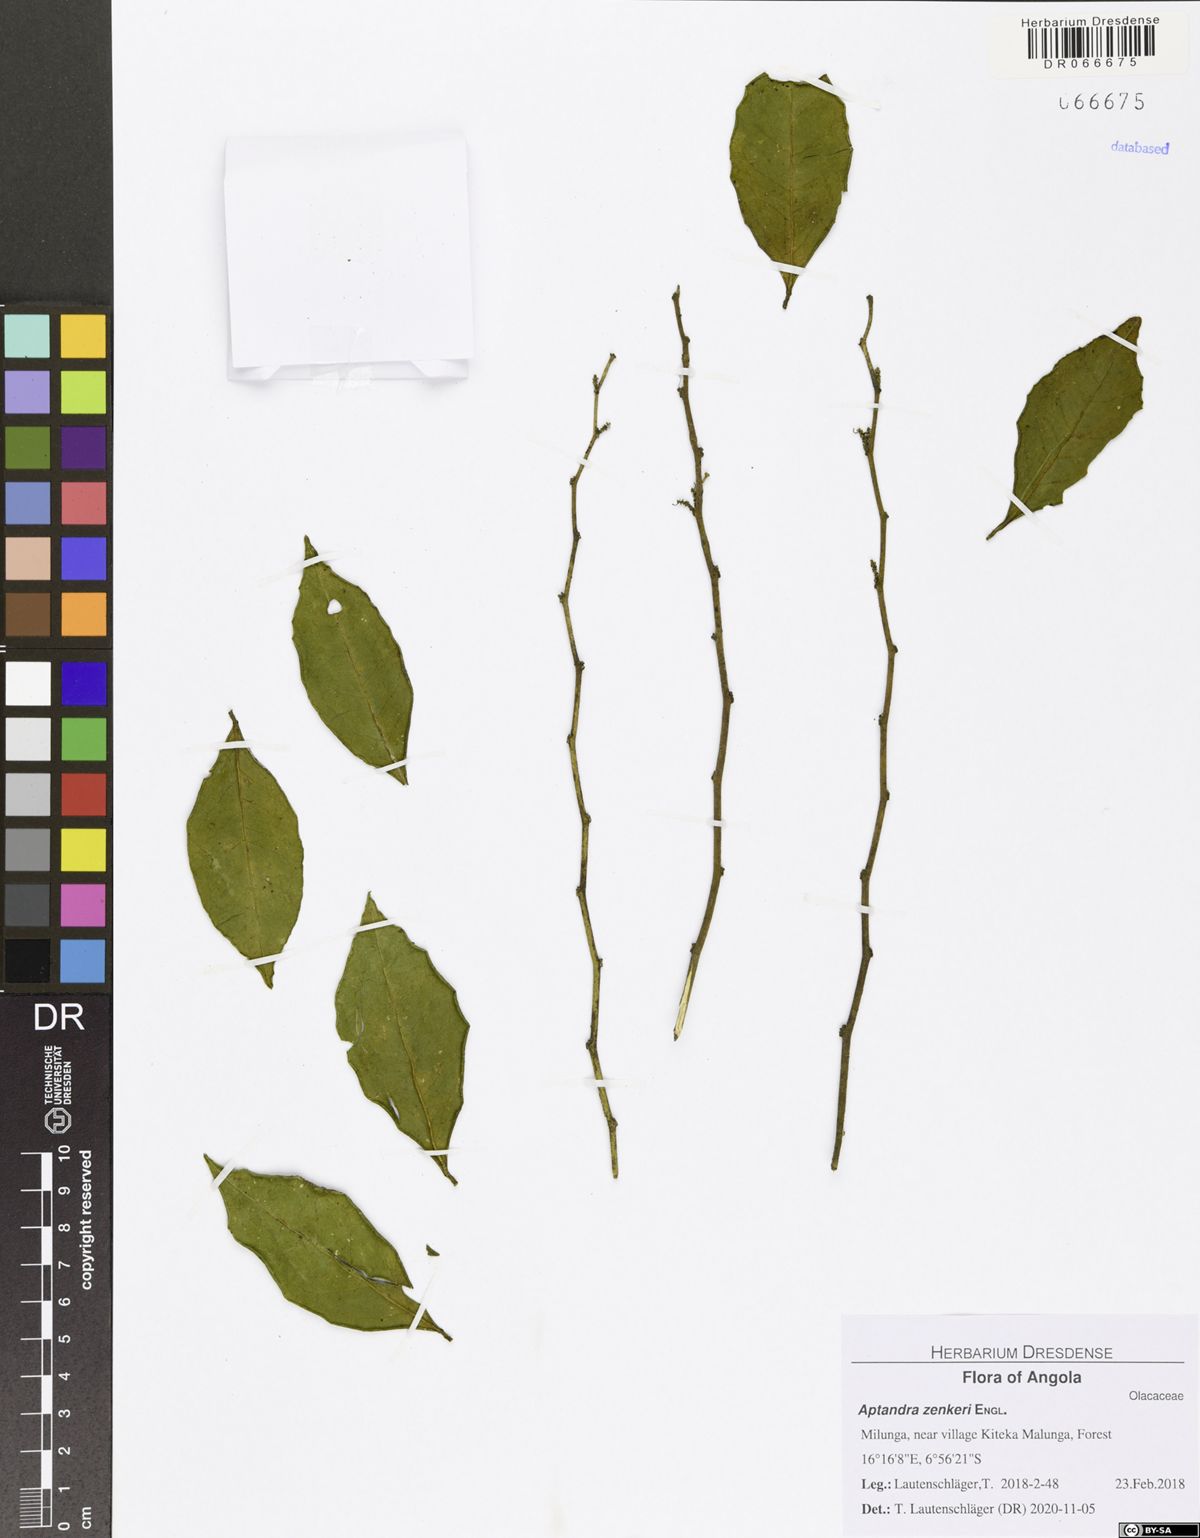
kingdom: Plantae
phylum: Tracheophyta
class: Magnoliopsida
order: Santalales
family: Aptandraceae
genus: Aptandra
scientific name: Aptandra zenkeri
